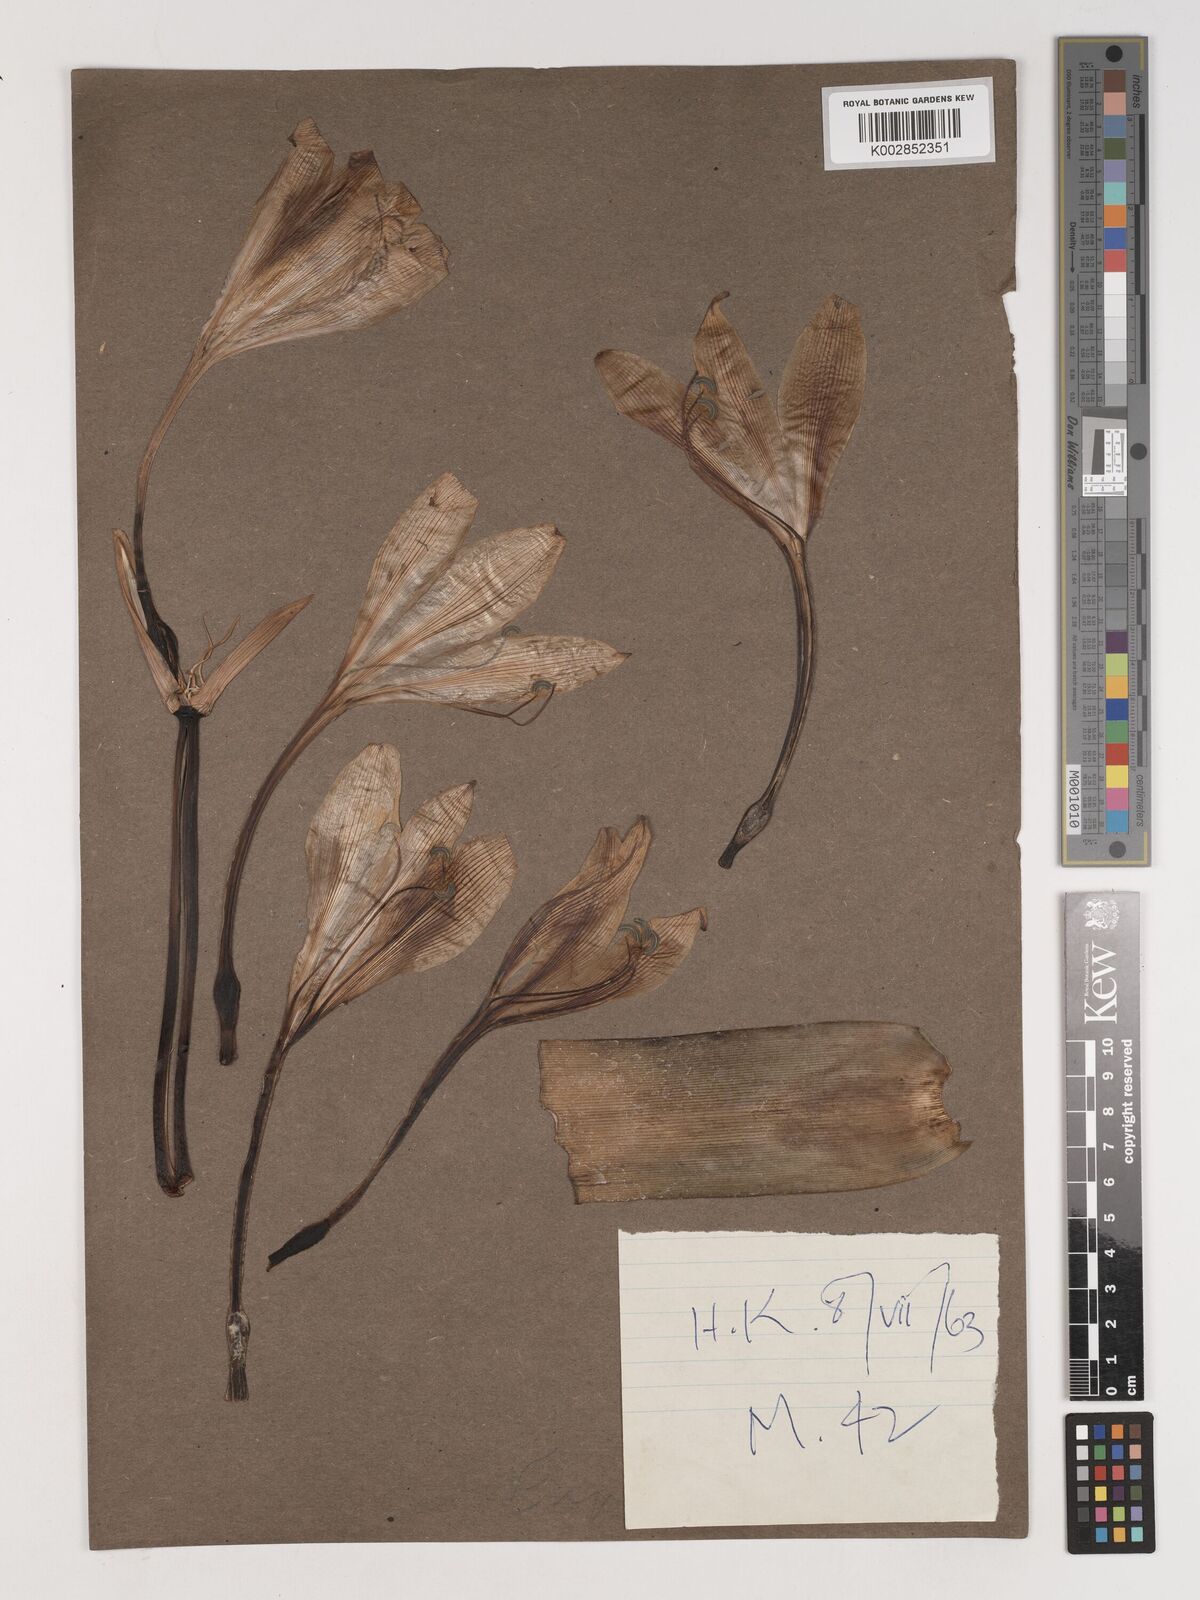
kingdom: Plantae
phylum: Tracheophyta
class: Liliopsida
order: Asparagales
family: Amaryllidaceae
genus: Crinum
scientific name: Crinum
